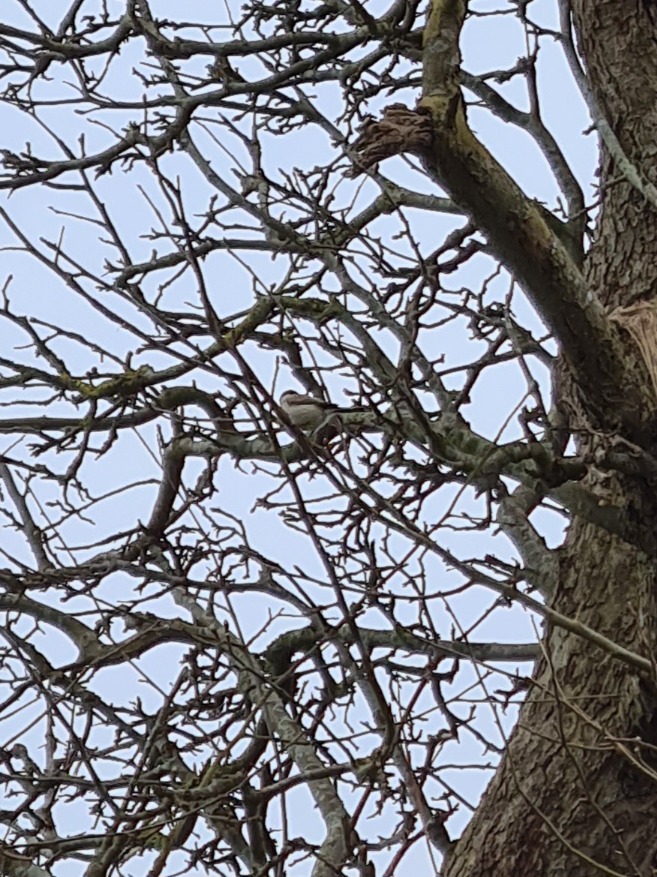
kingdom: Animalia
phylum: Chordata
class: Aves
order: Passeriformes
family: Paridae
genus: Poecile
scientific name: Poecile palustris
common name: Sumpmejse
